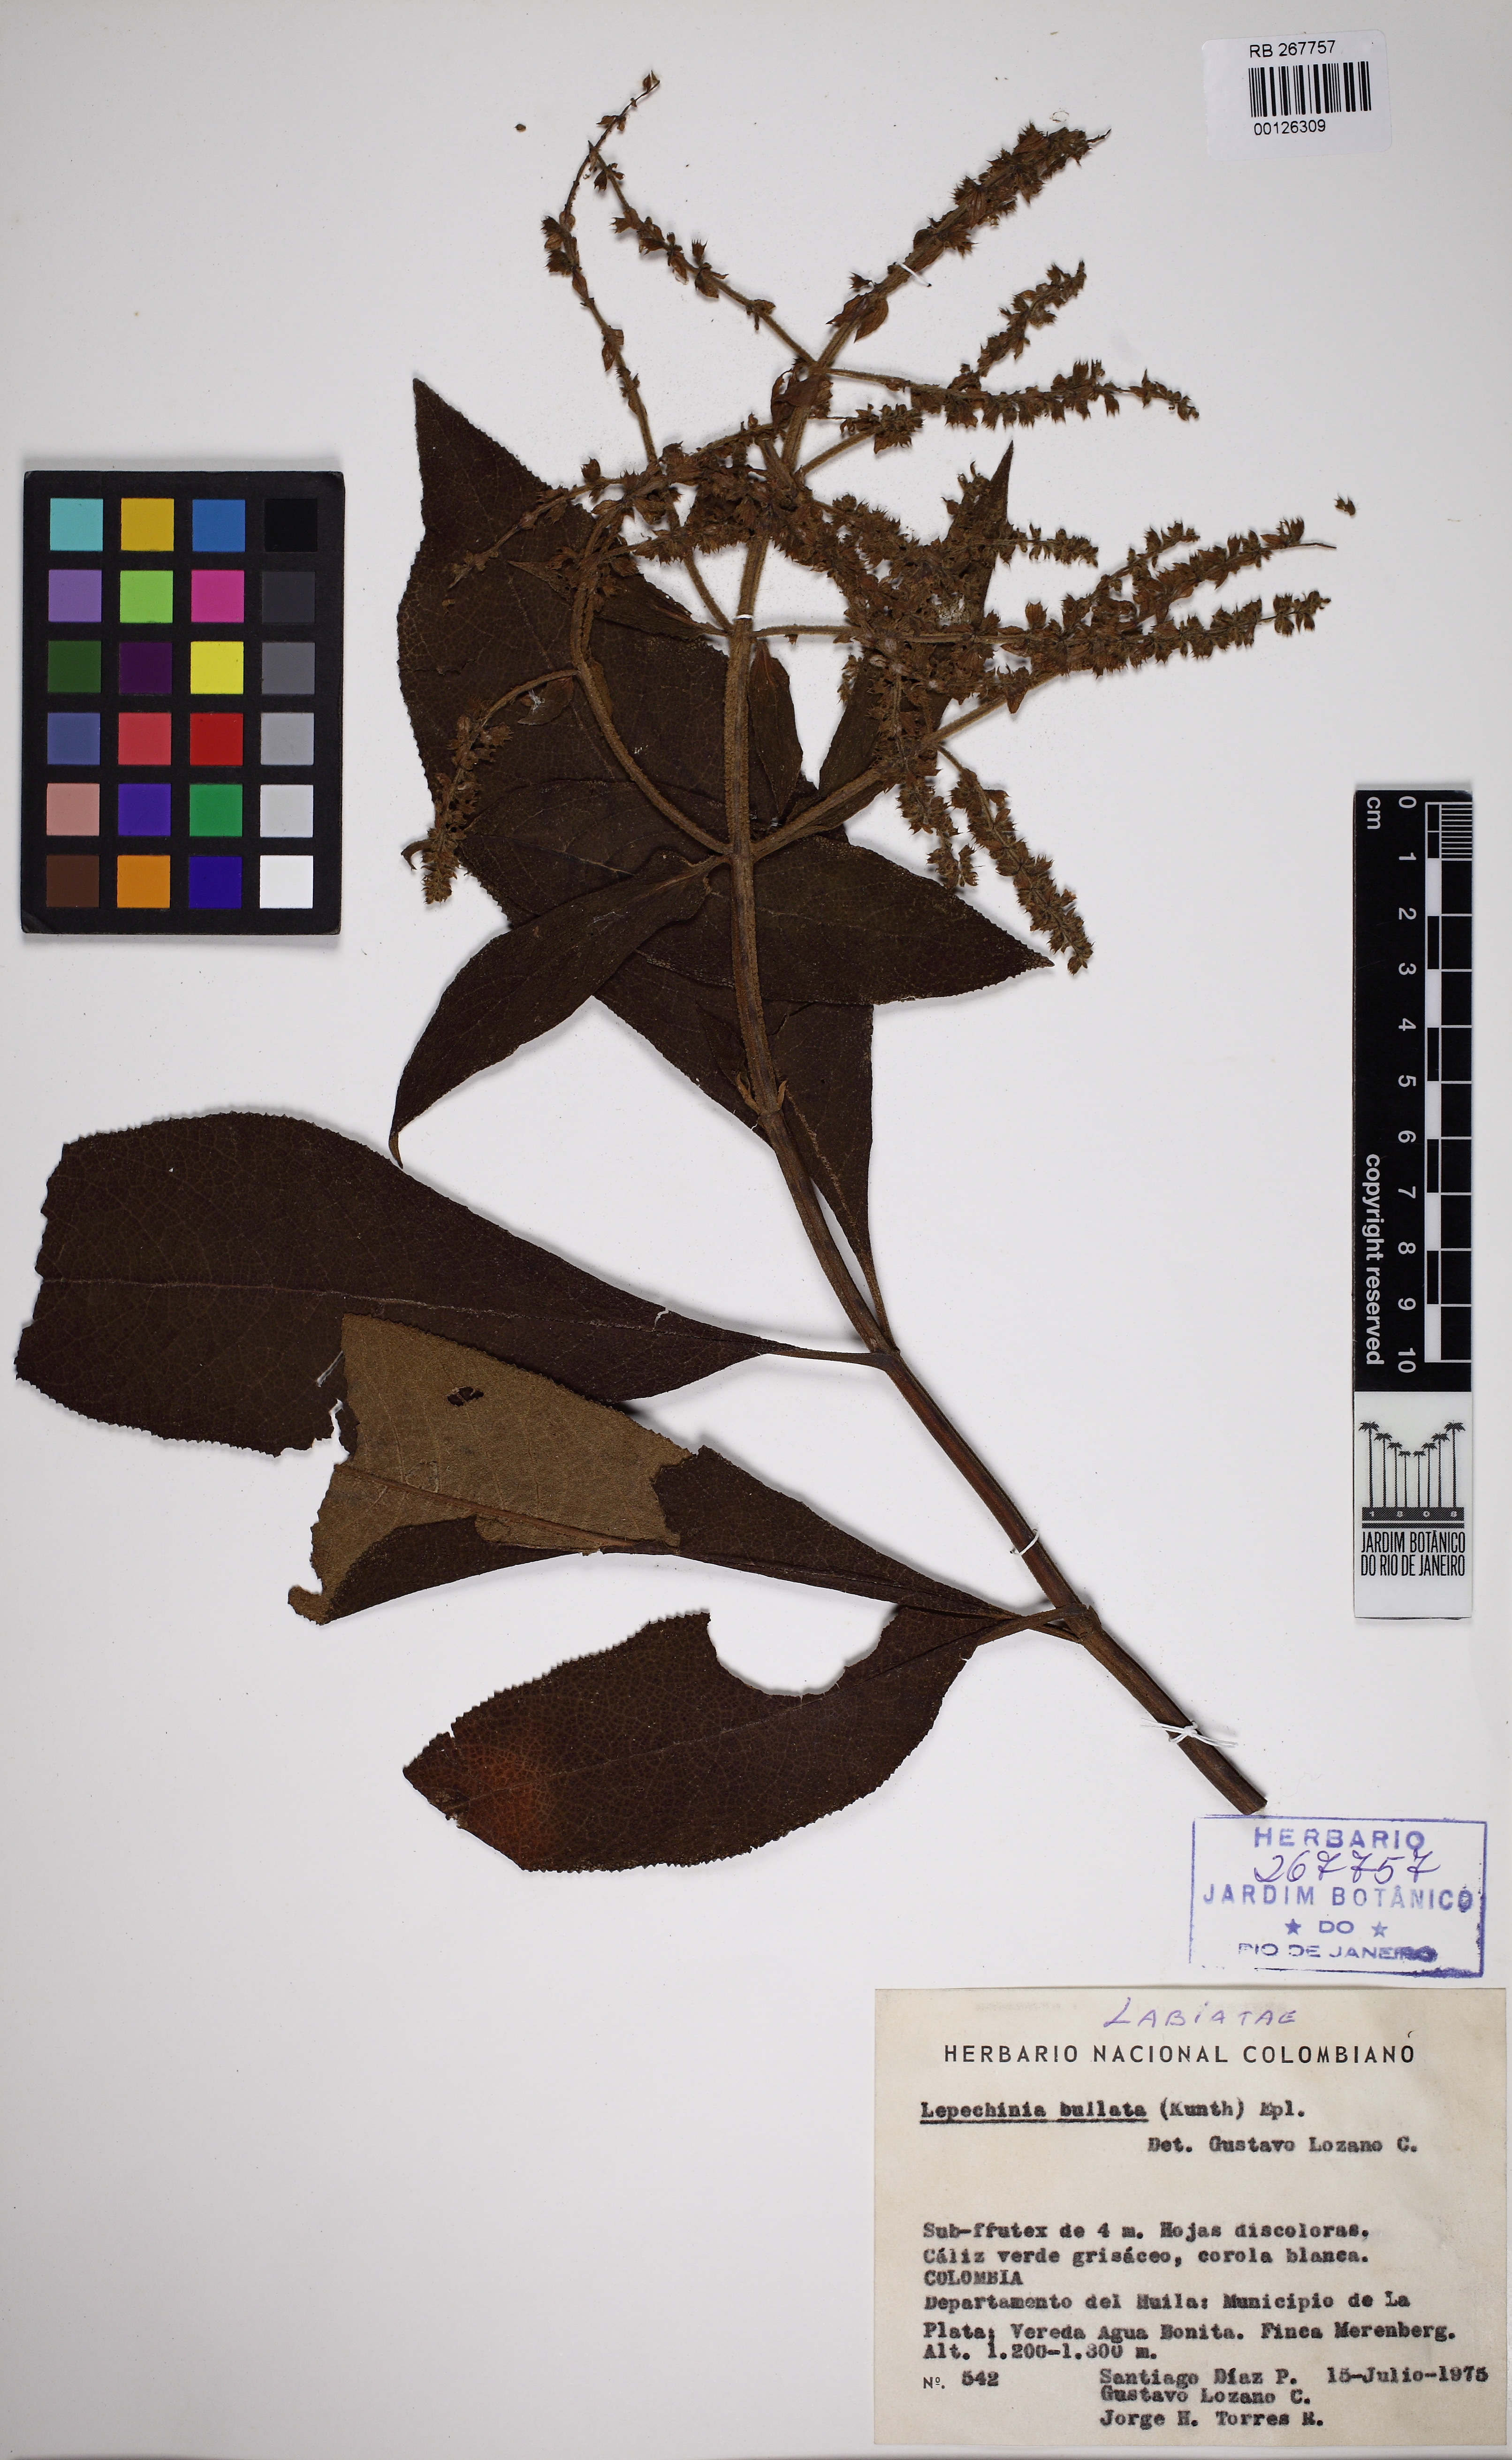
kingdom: Plantae
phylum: Tracheophyta
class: Magnoliopsida
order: Lamiales
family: Lamiaceae
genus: Lepechinia
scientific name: Lepechinia bullata
